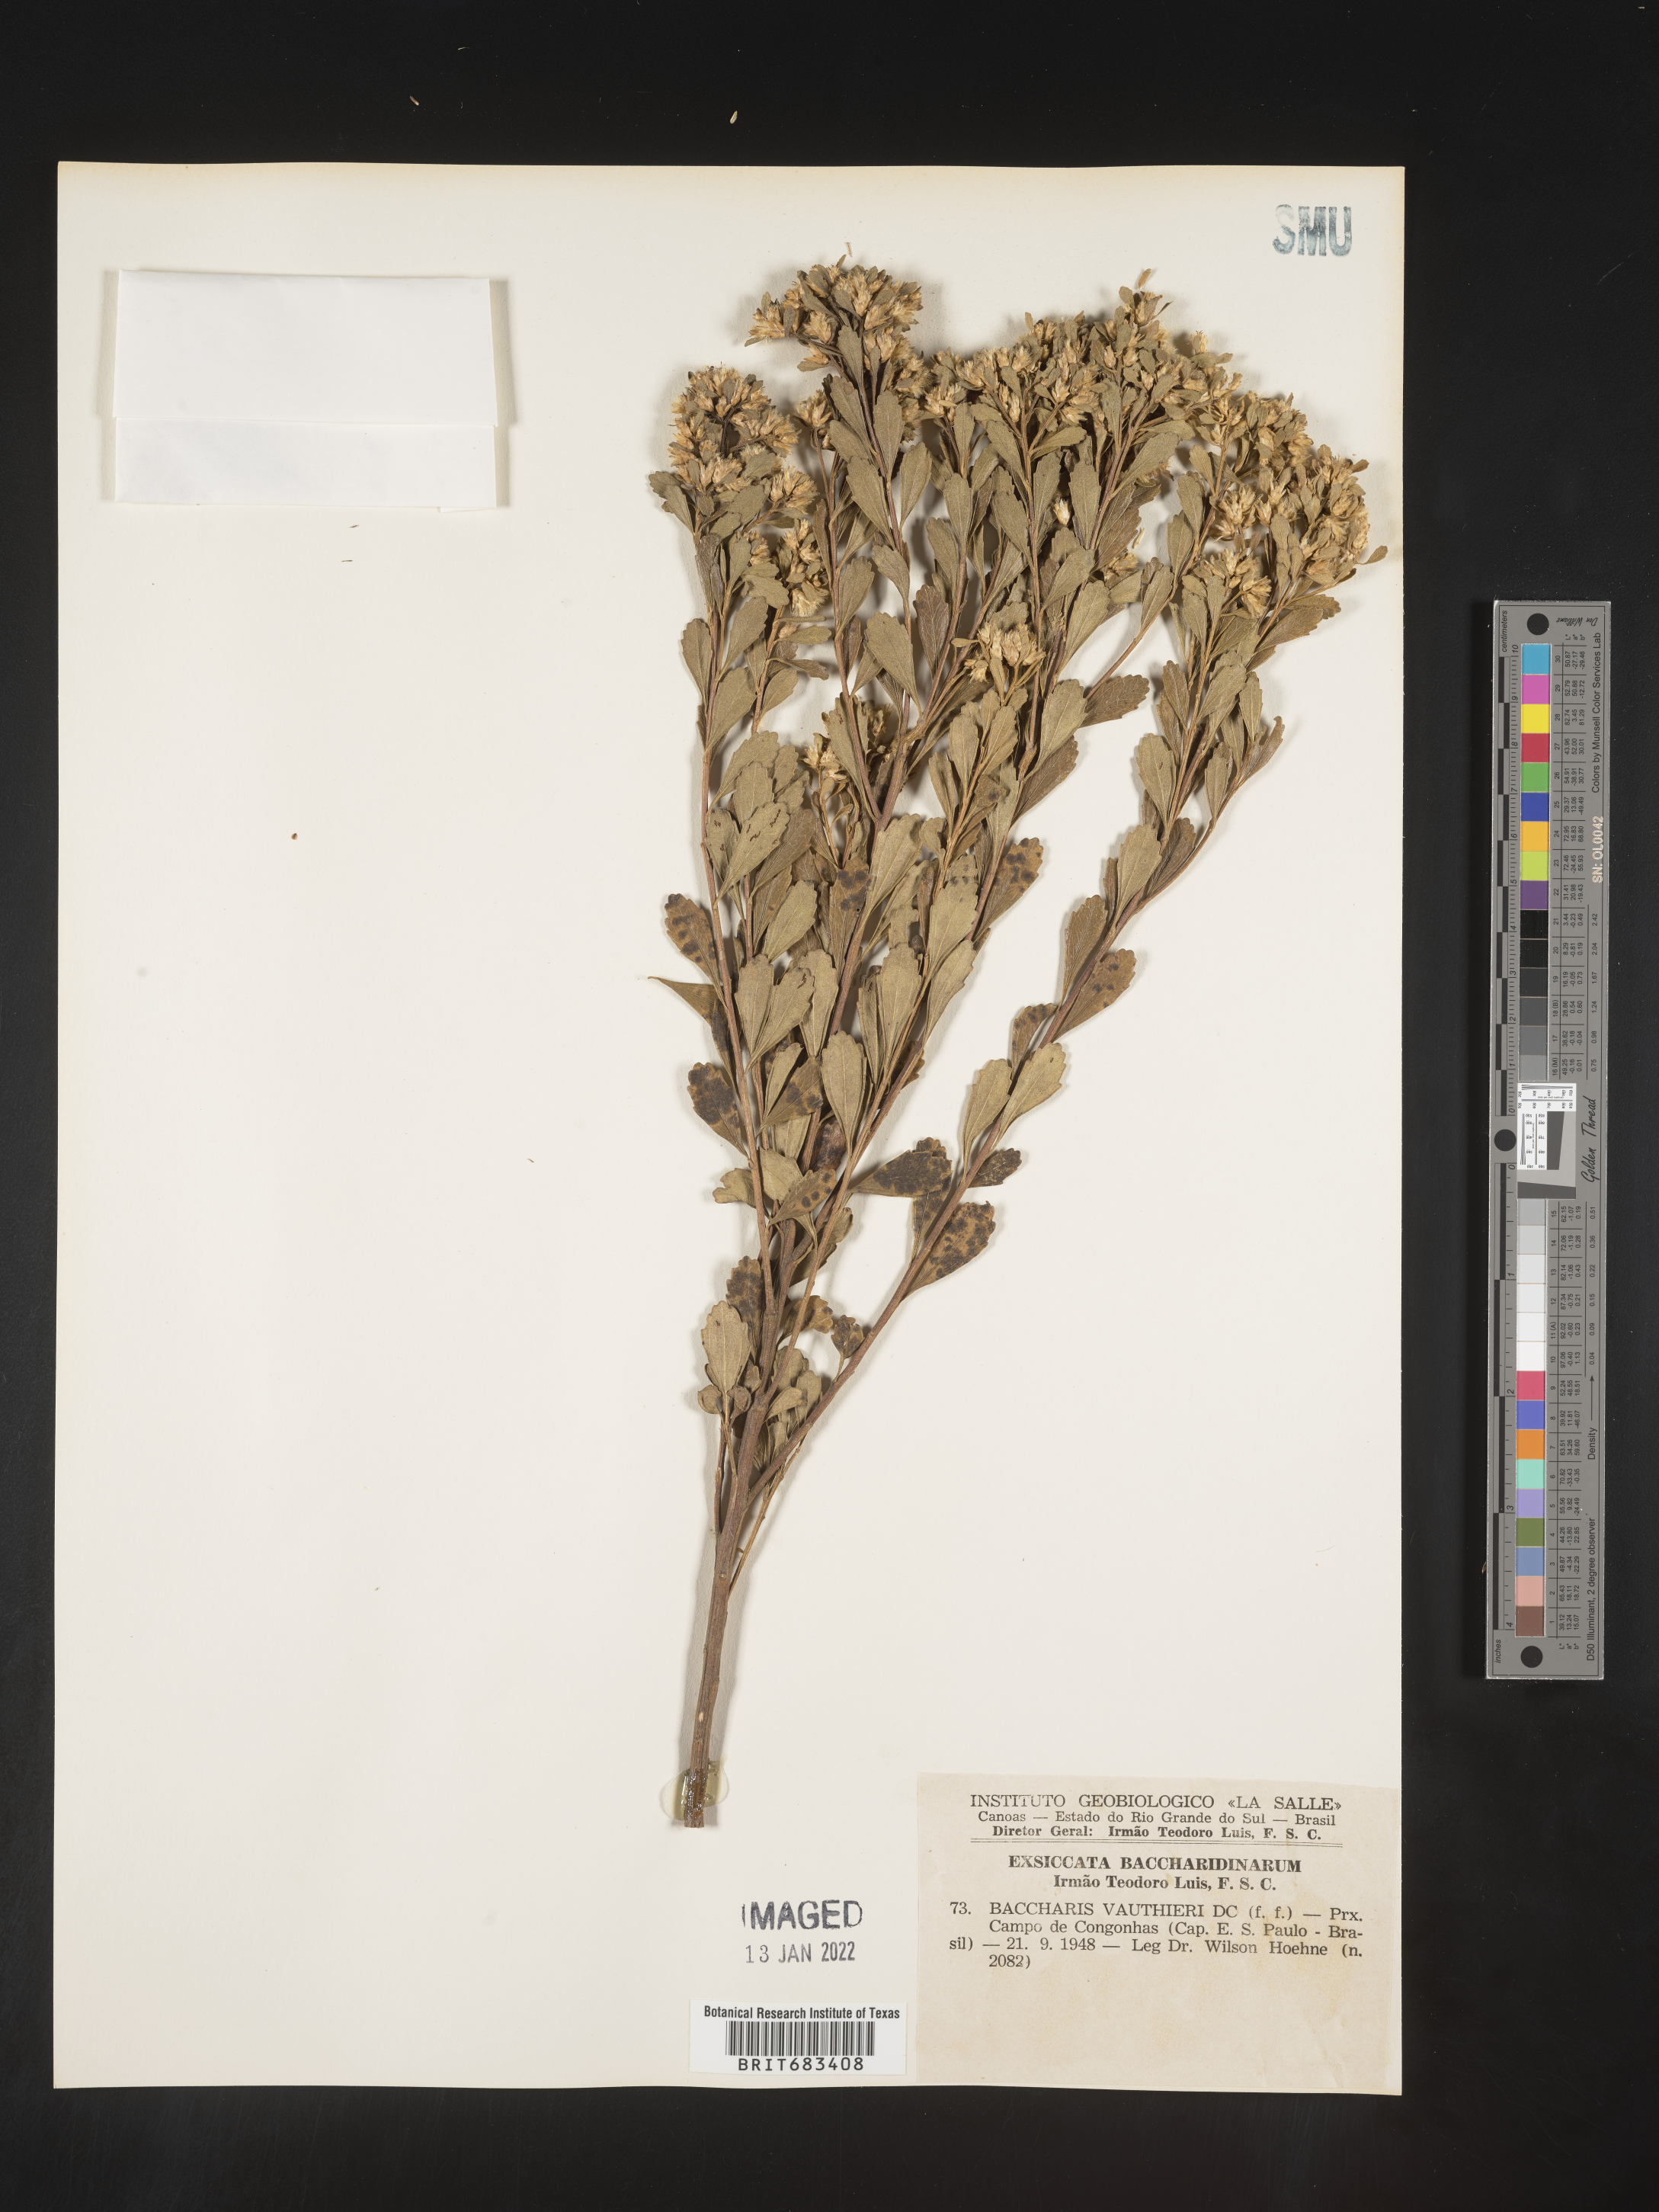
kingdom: Plantae
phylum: Tracheophyta
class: Magnoliopsida
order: Asterales
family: Asteraceae
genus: Baccharis
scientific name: Baccharis
